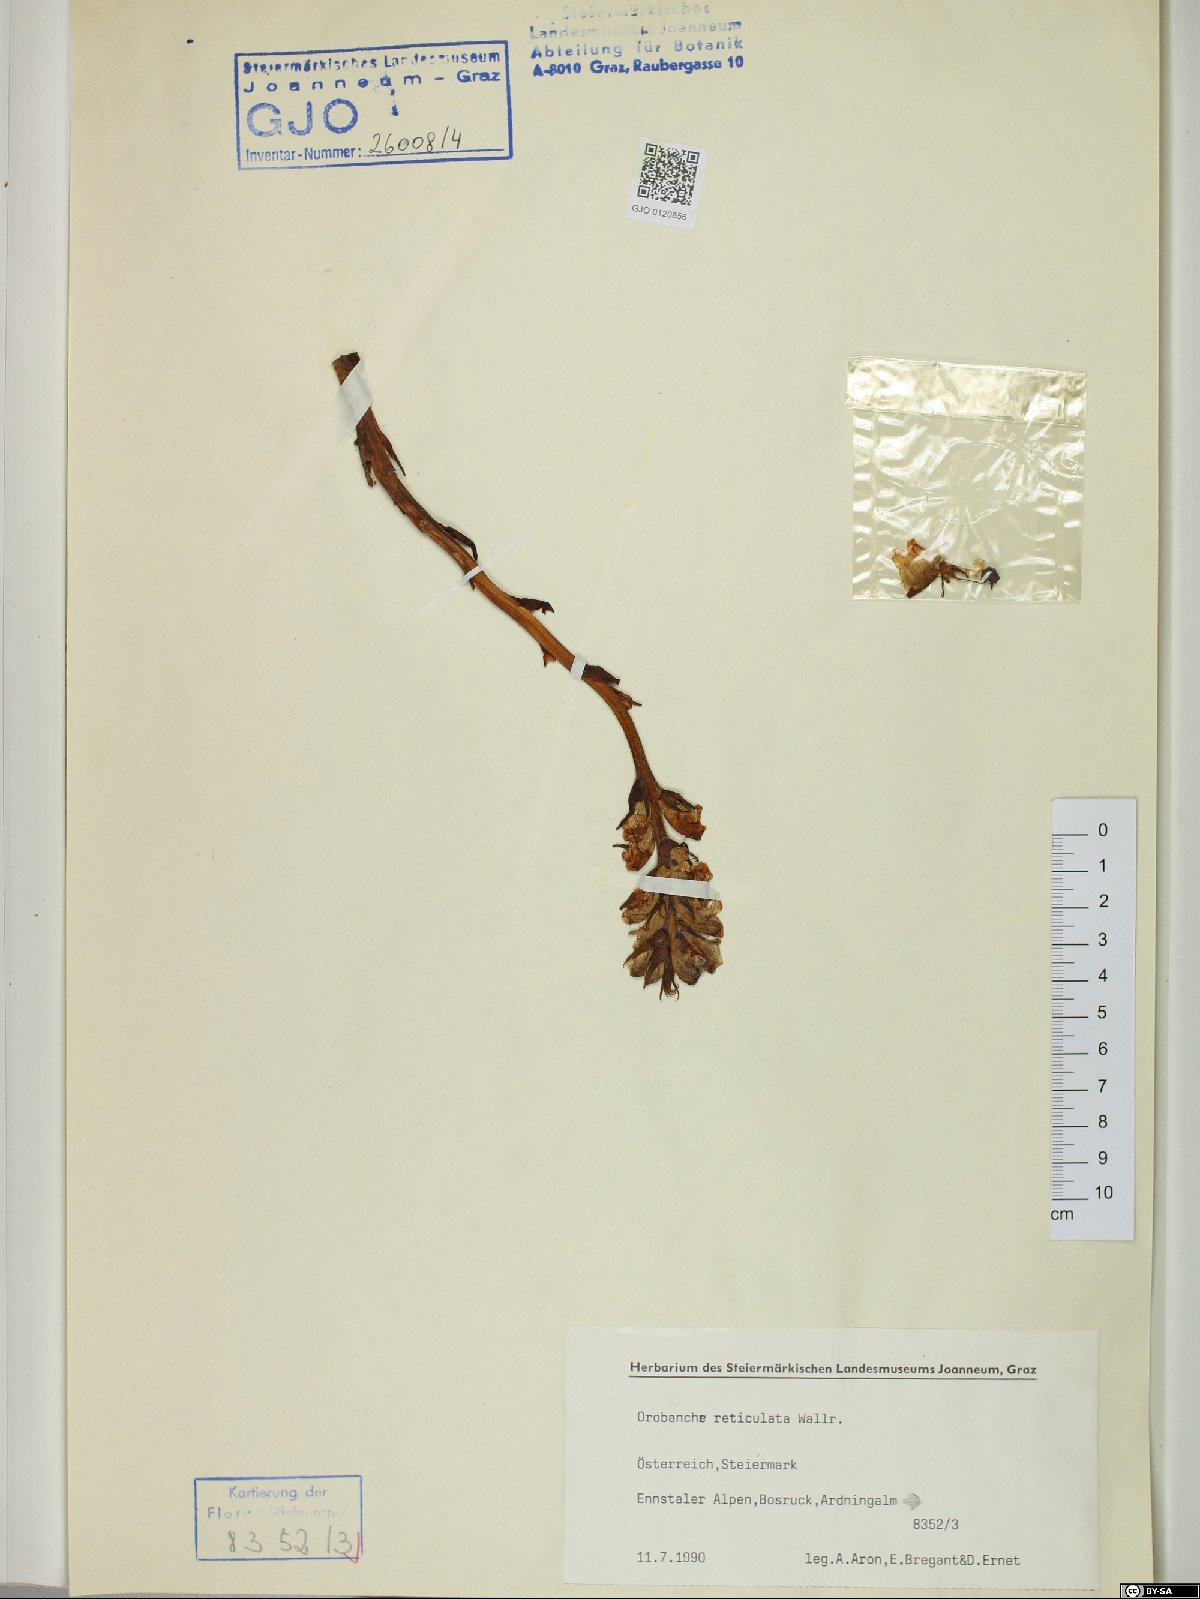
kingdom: Plantae
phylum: Tracheophyta
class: Magnoliopsida
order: Lamiales
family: Orobanchaceae
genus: Orobanche
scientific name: Orobanche reticulata
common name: Thistle broomrape
